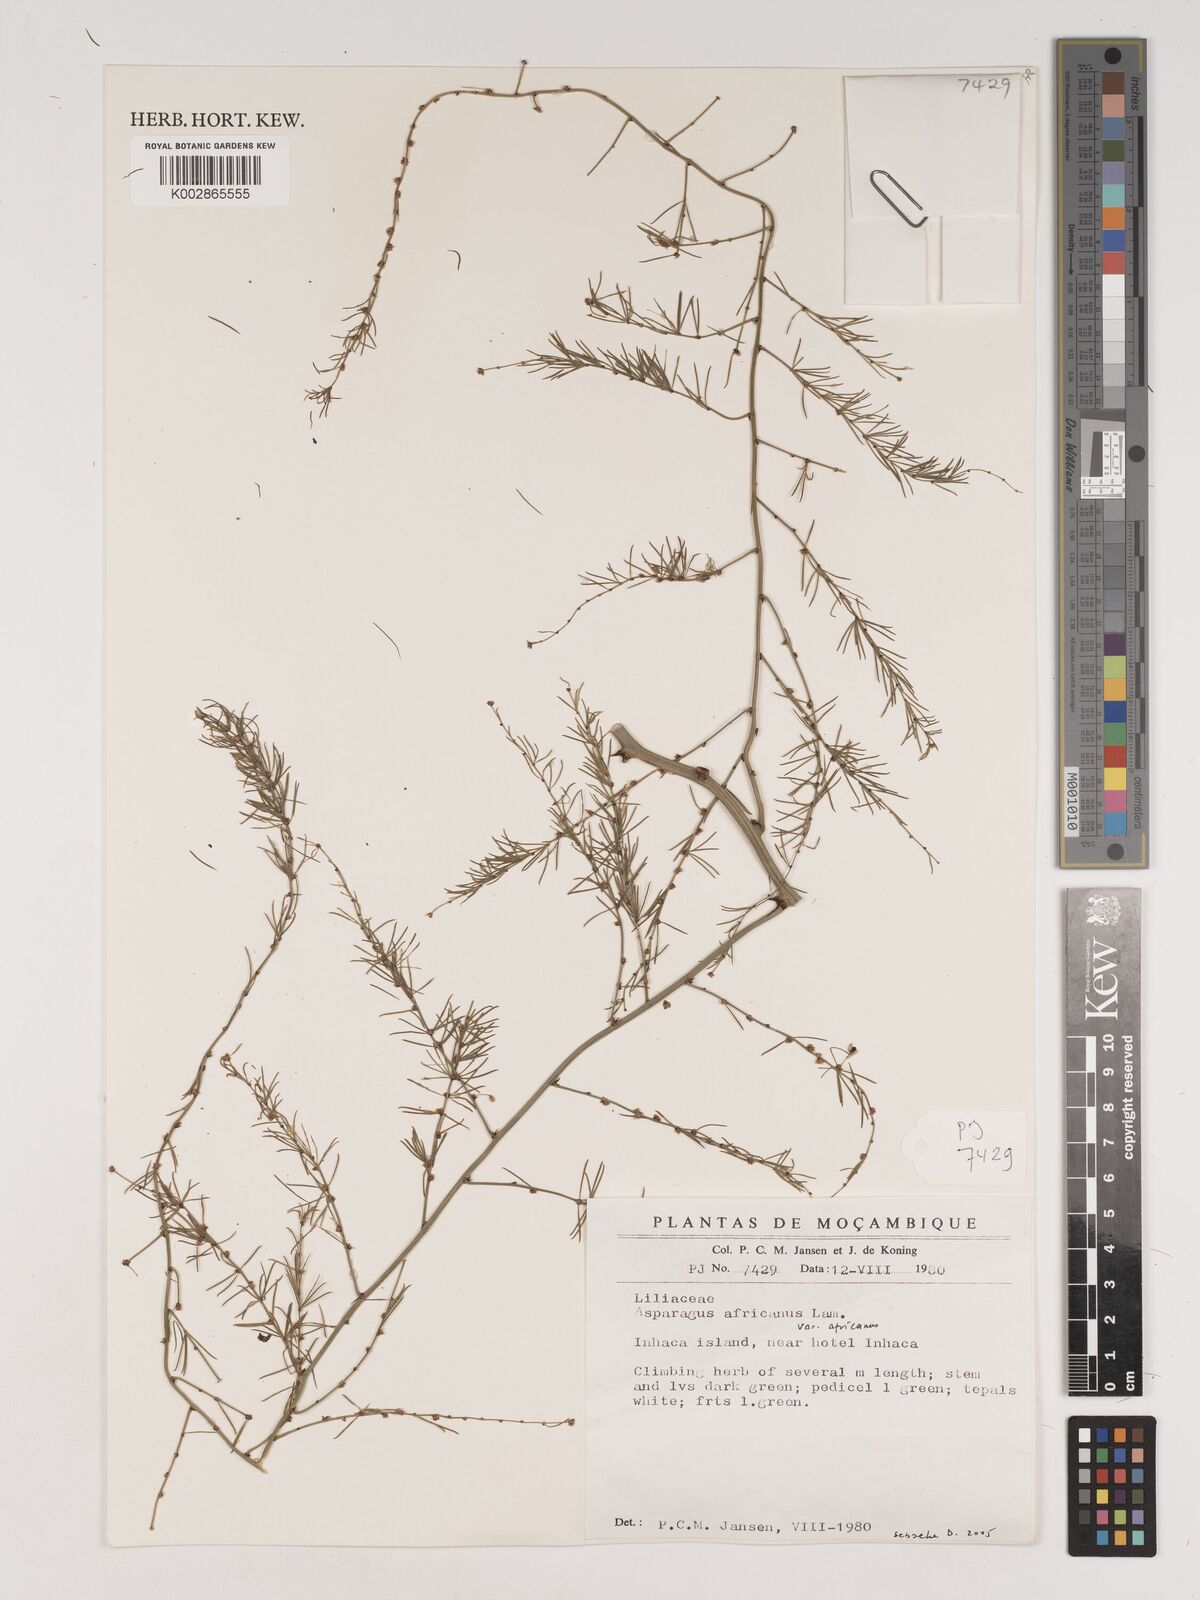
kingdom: Plantae
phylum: Tracheophyta
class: Liliopsida
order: Asparagales
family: Asparagaceae
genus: Asparagus
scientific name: Asparagus africanus
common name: Asparagus-fern
